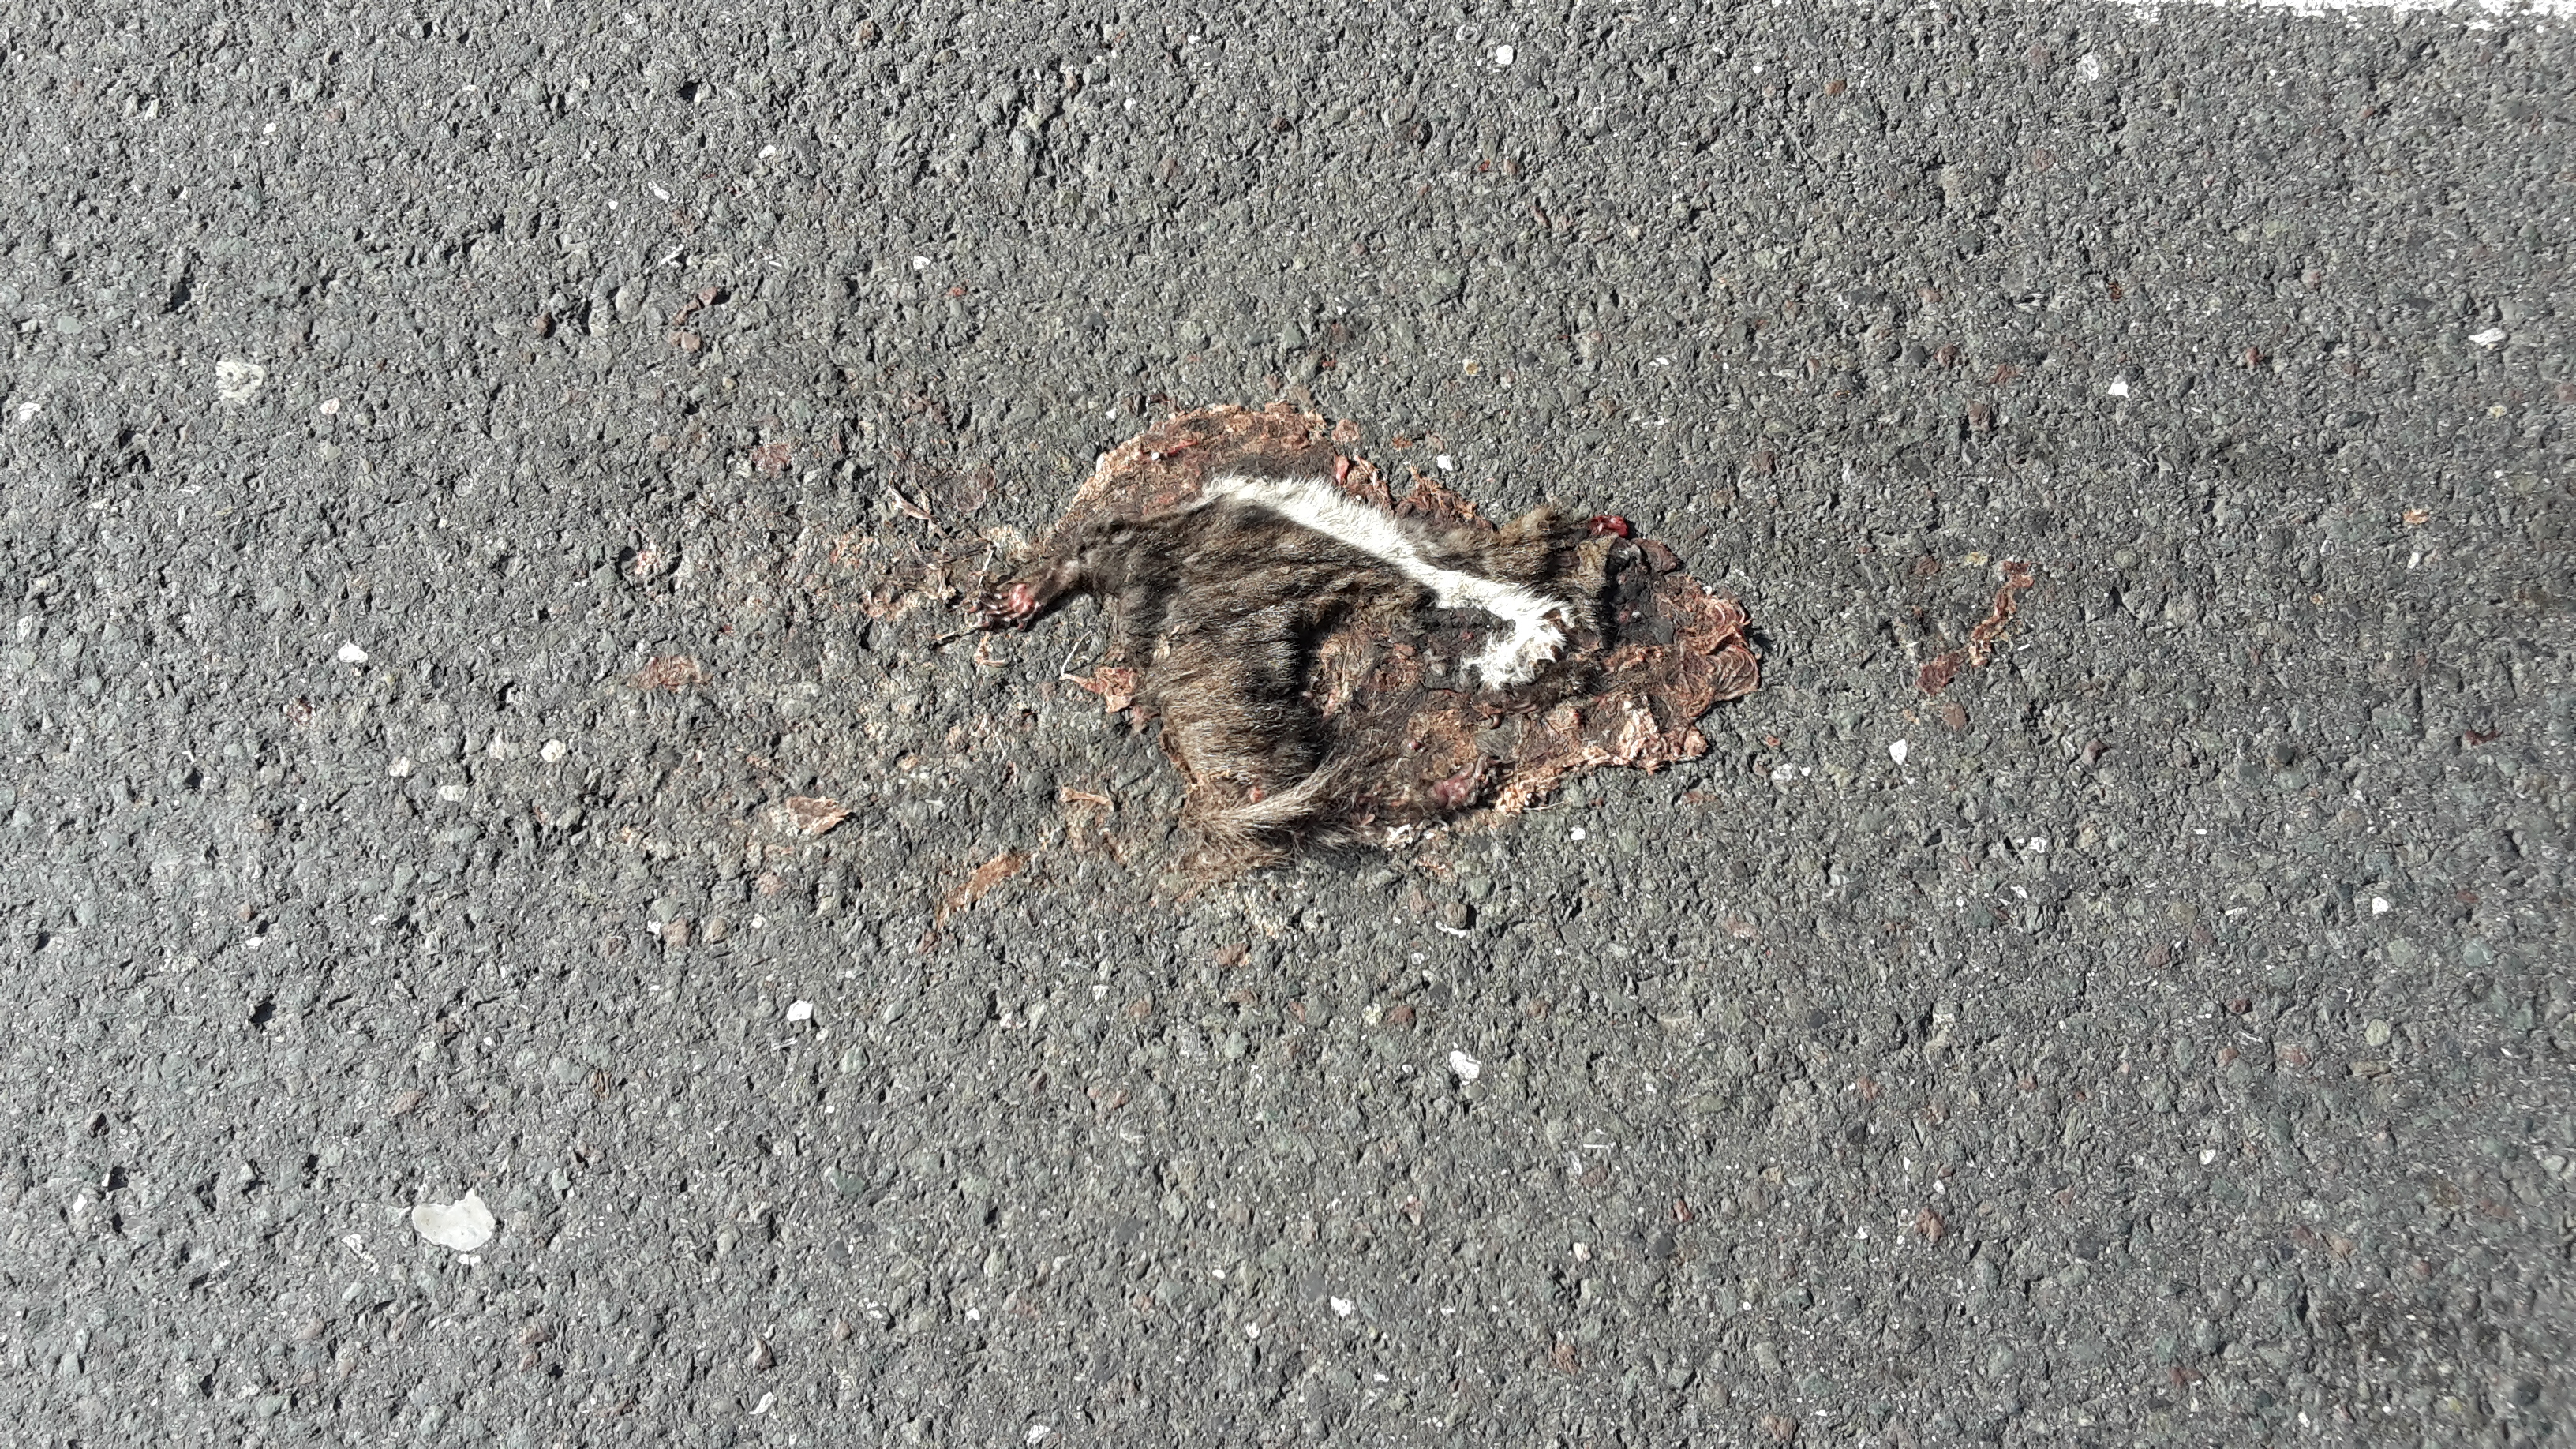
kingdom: Animalia
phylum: Chordata
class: Mammalia
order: Rodentia
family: Sciuridae
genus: Sciurus
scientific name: Sciurus vulgaris
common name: Eurasian red squirrel
